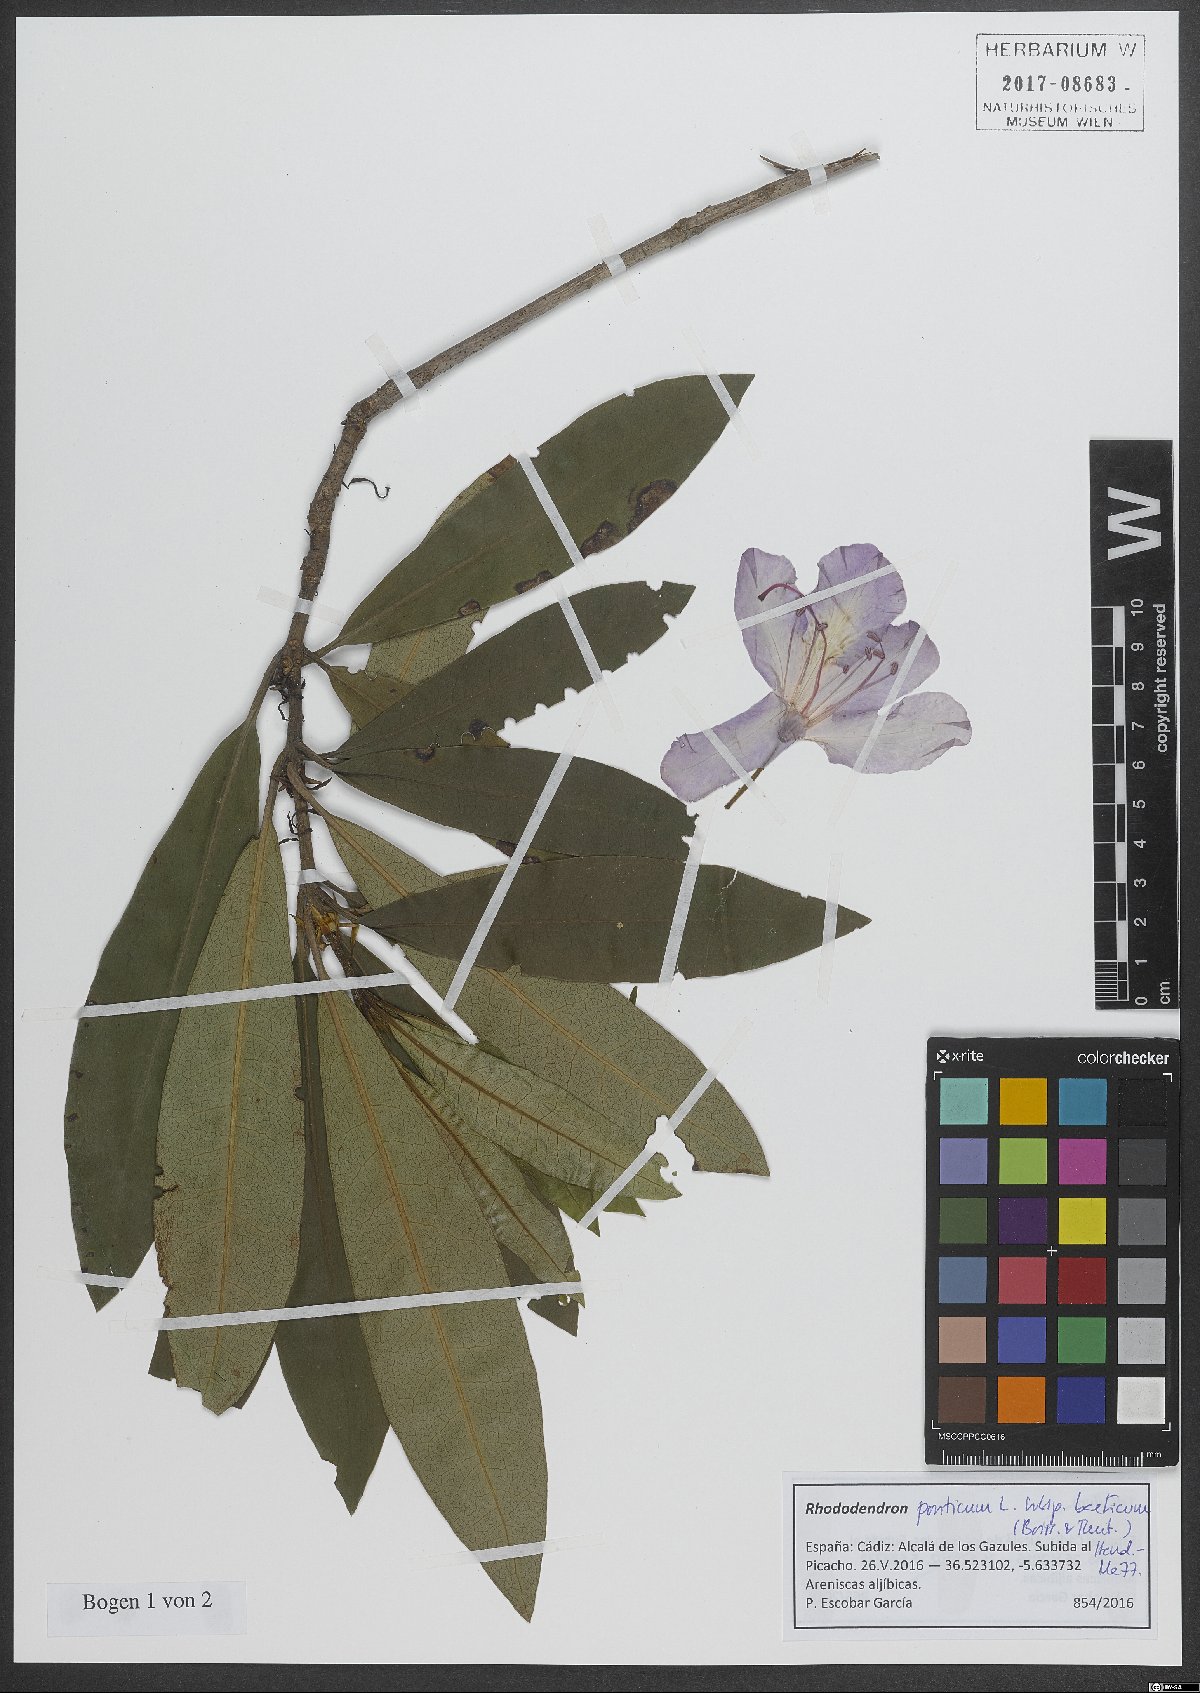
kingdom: Plantae
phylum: Tracheophyta
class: Magnoliopsida
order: Ericales
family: Ericaceae
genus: Rhododendron
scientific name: Rhododendron ponticum
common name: Rhododendron
